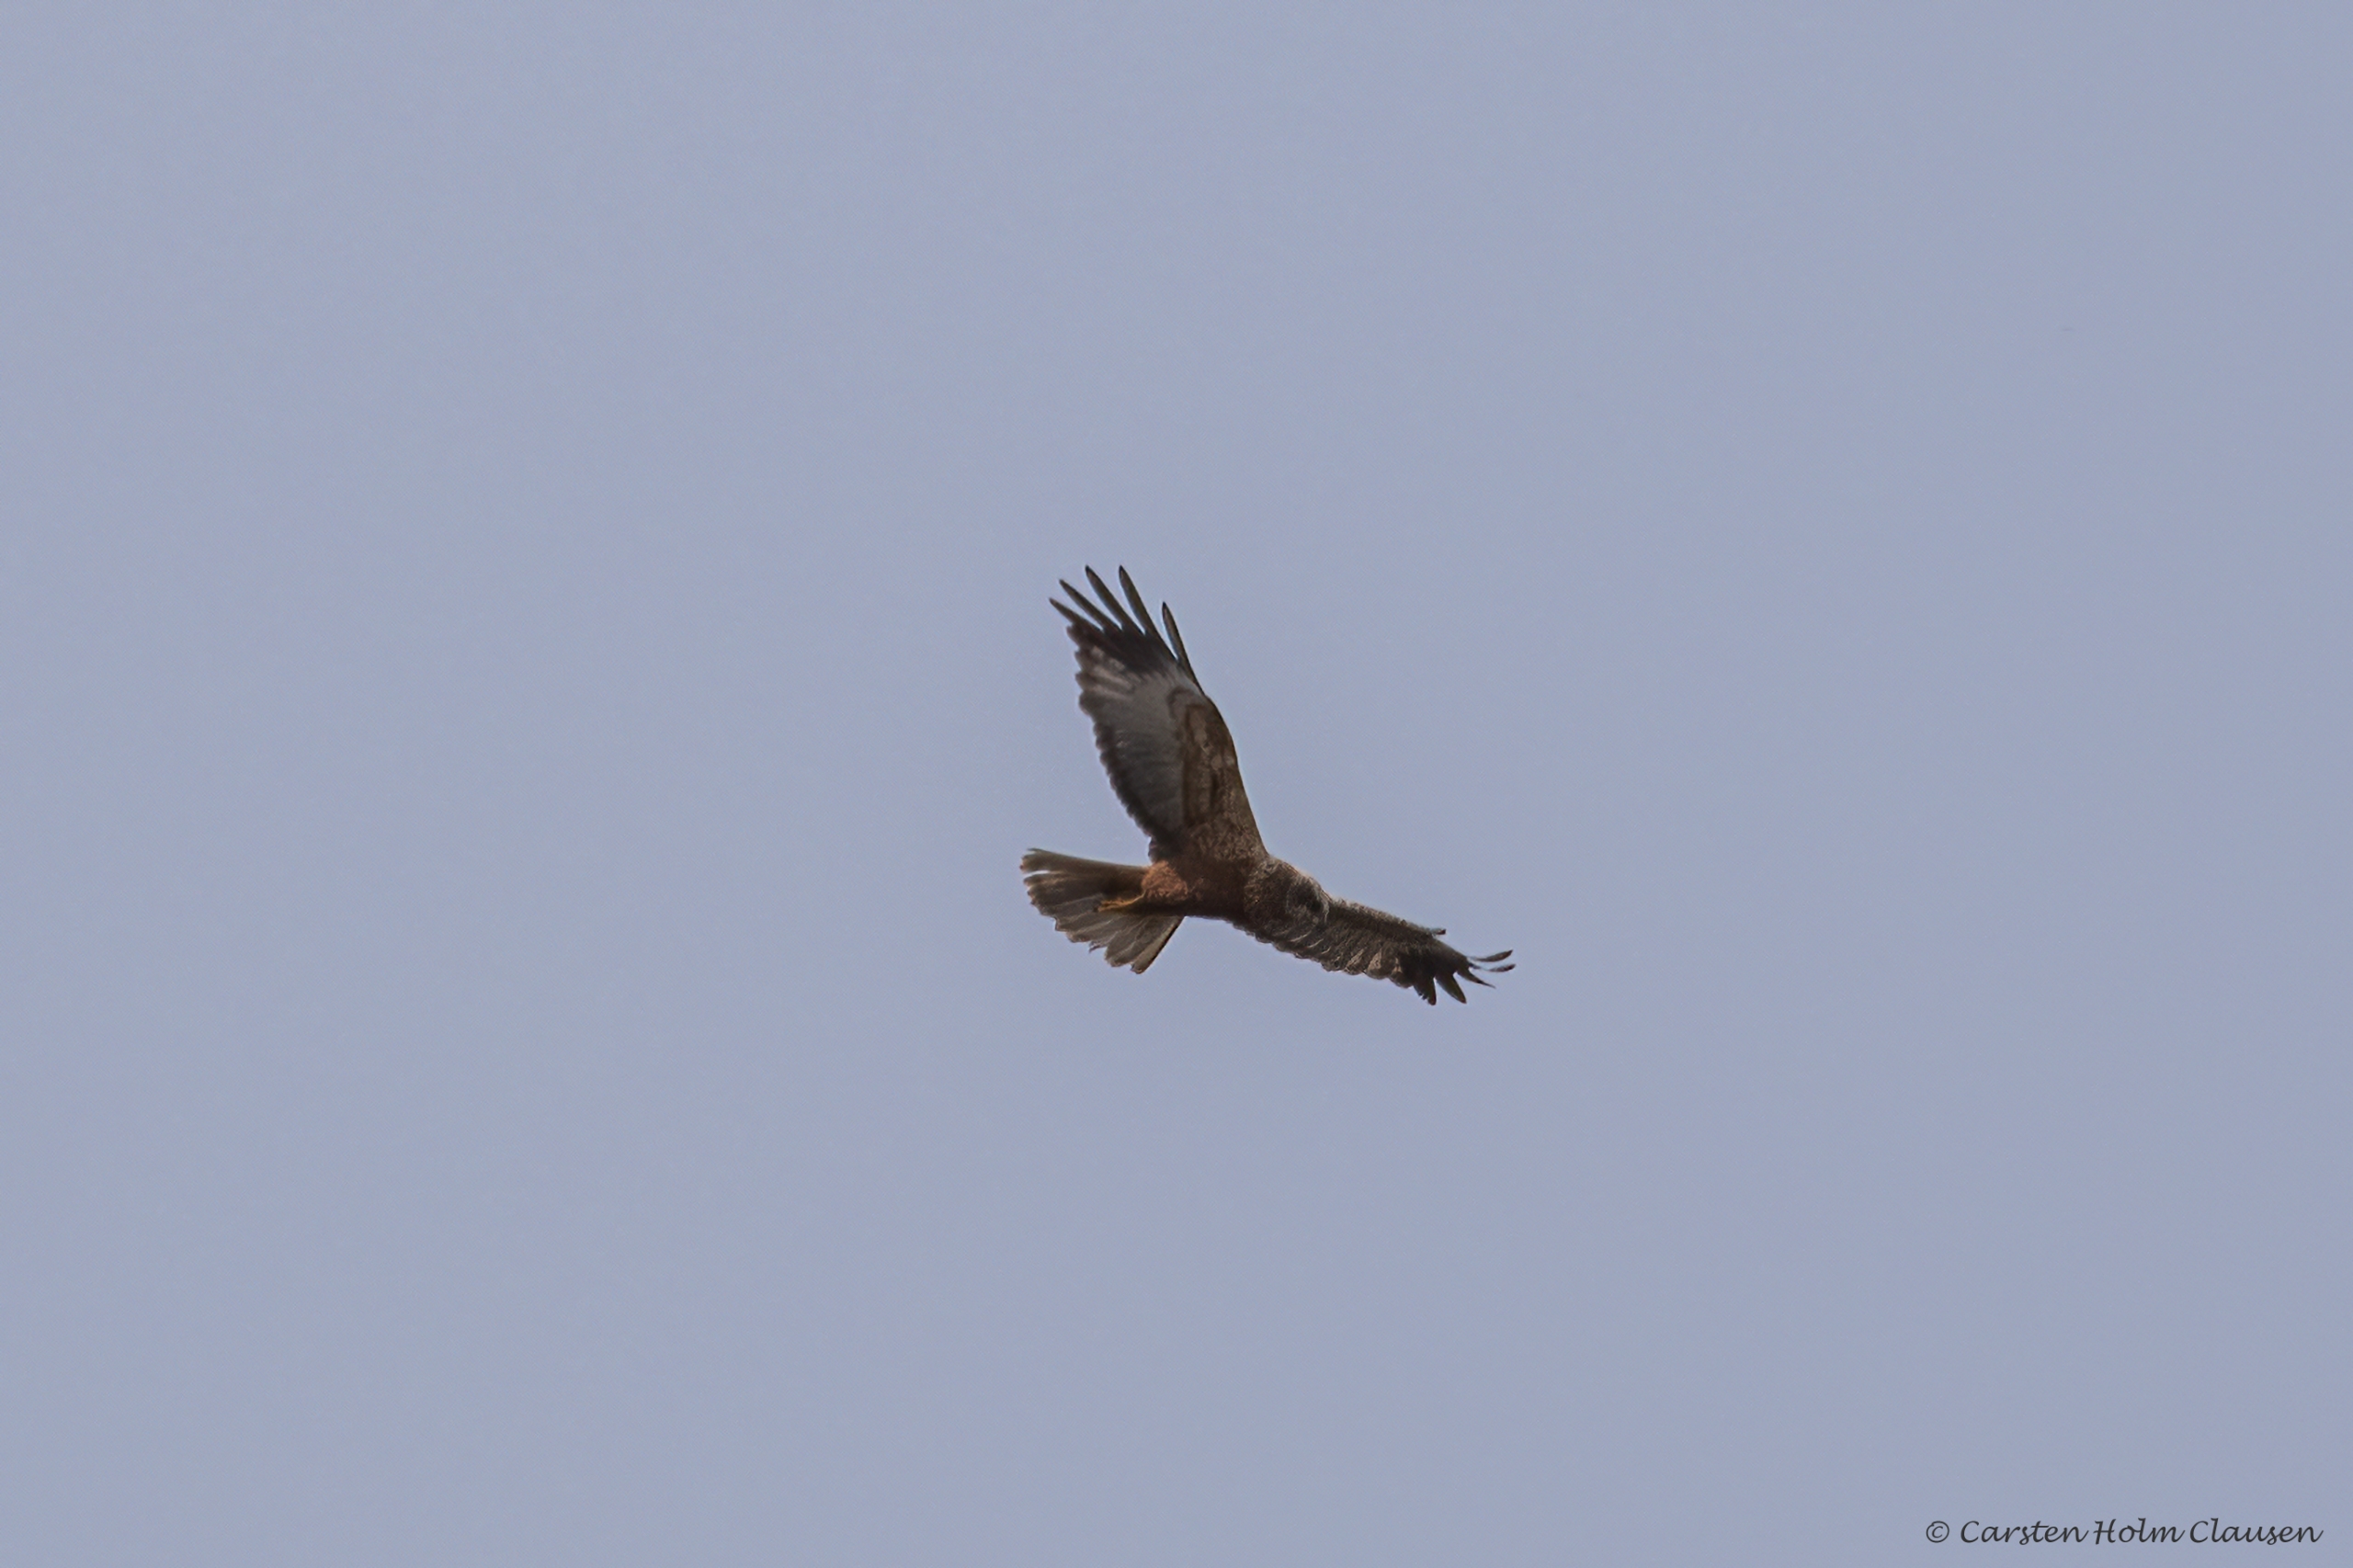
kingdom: Animalia
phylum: Chordata
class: Aves
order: Accipitriformes
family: Accipitridae
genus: Circus
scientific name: Circus aeruginosus
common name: Rørhøg
